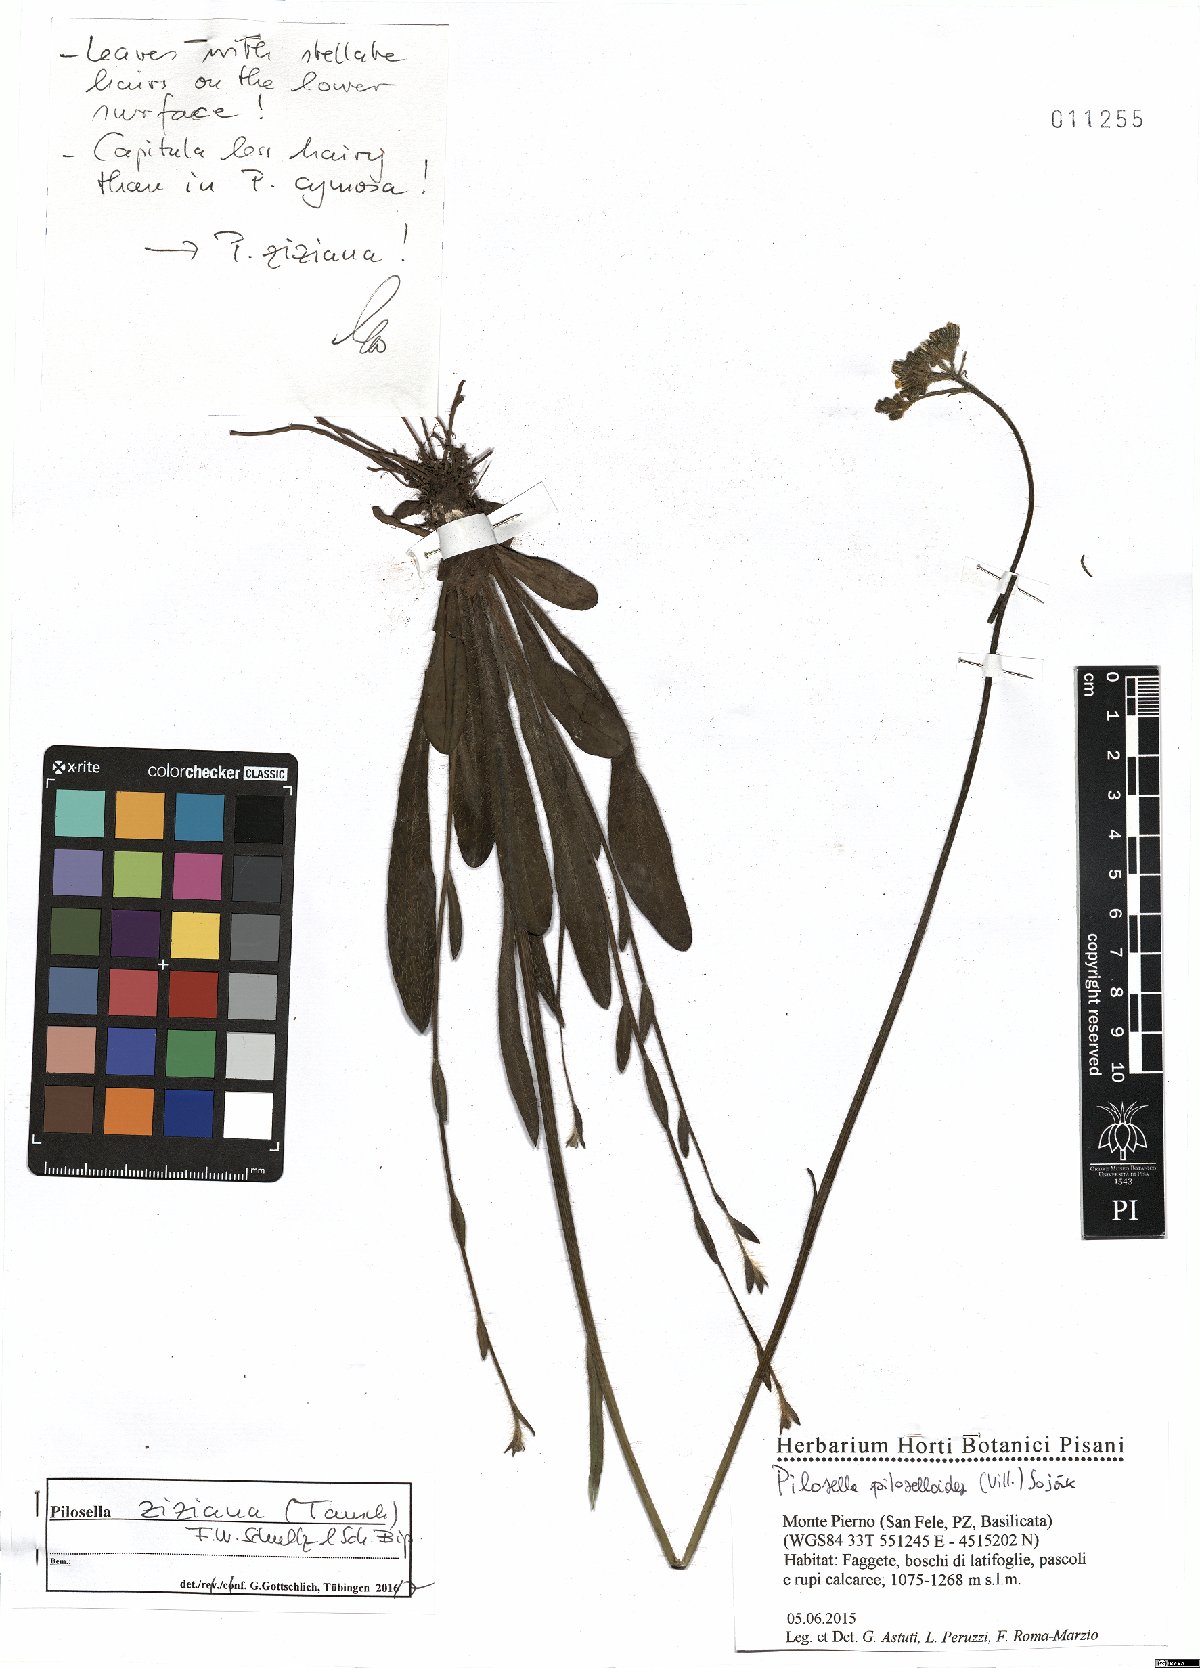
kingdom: Plantae
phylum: Tracheophyta
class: Magnoliopsida
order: Asterales
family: Asteraceae
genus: Pilosella
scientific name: Pilosella ziziana
